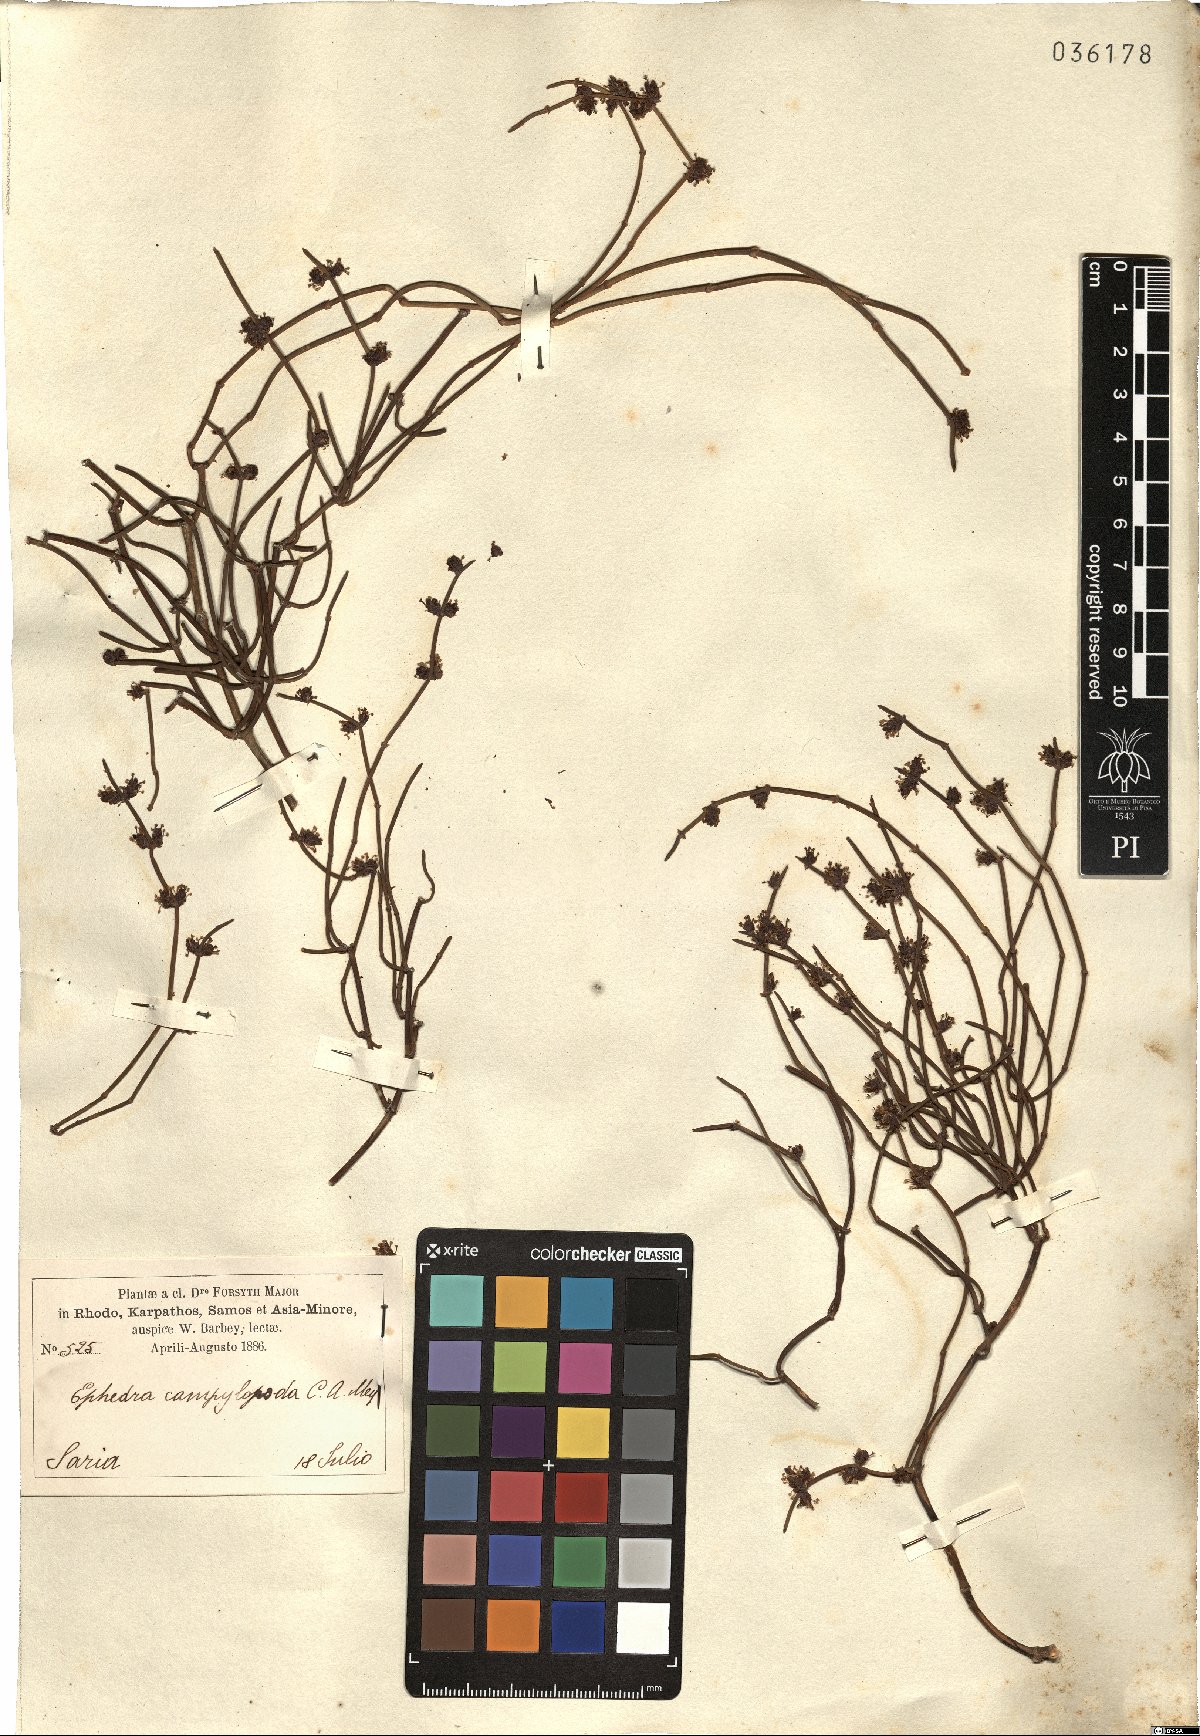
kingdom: Plantae
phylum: Tracheophyta
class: Gnetopsida
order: Ephedrales
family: Ephedraceae
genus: Ephedra
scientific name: Ephedra foeminea
